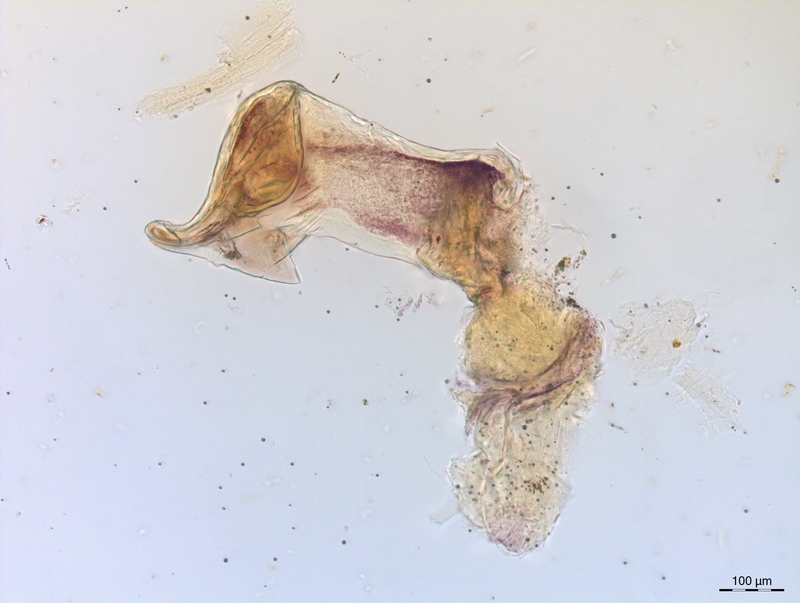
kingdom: Animalia
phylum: Arthropoda
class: Diplopoda
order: Chordeumatida
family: Craspedosomatidae
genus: Craspedosoma
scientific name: Craspedosoma alemannicum
